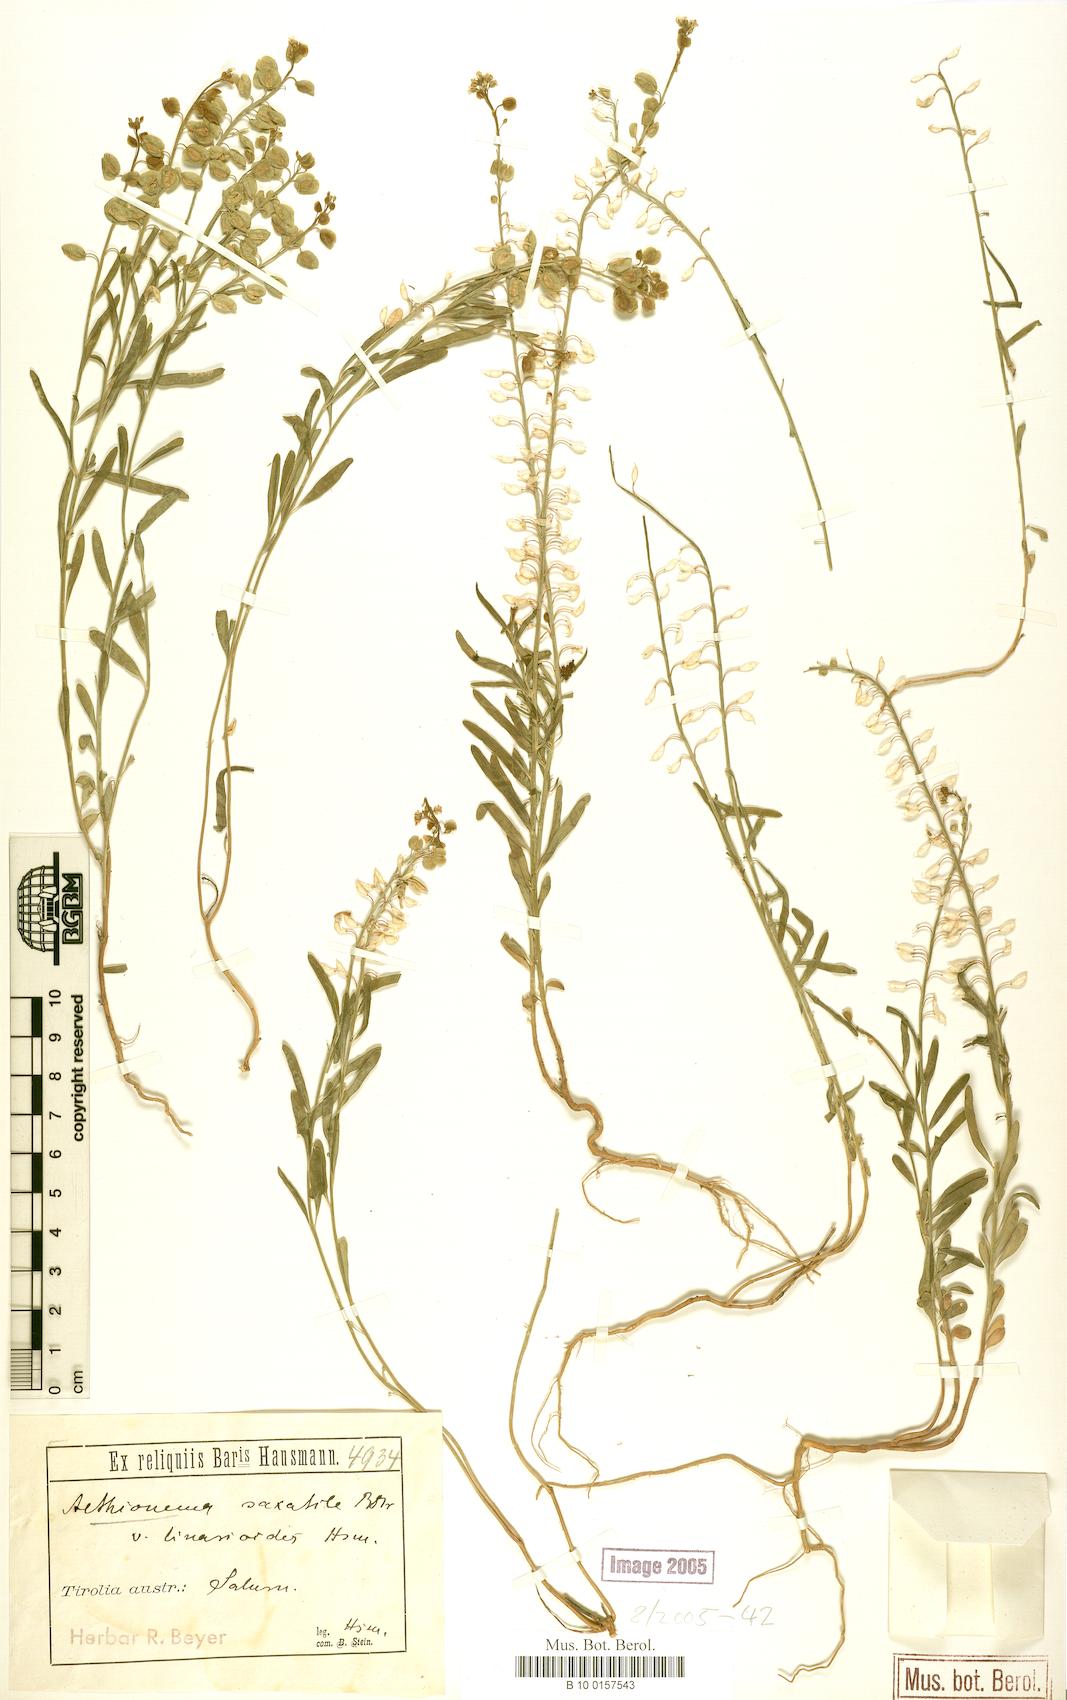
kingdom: Plantae
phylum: Tracheophyta
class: Magnoliopsida
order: Brassicales
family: Brassicaceae
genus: Aethionema
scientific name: Aethionema saxatile
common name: Burnt candytuft
